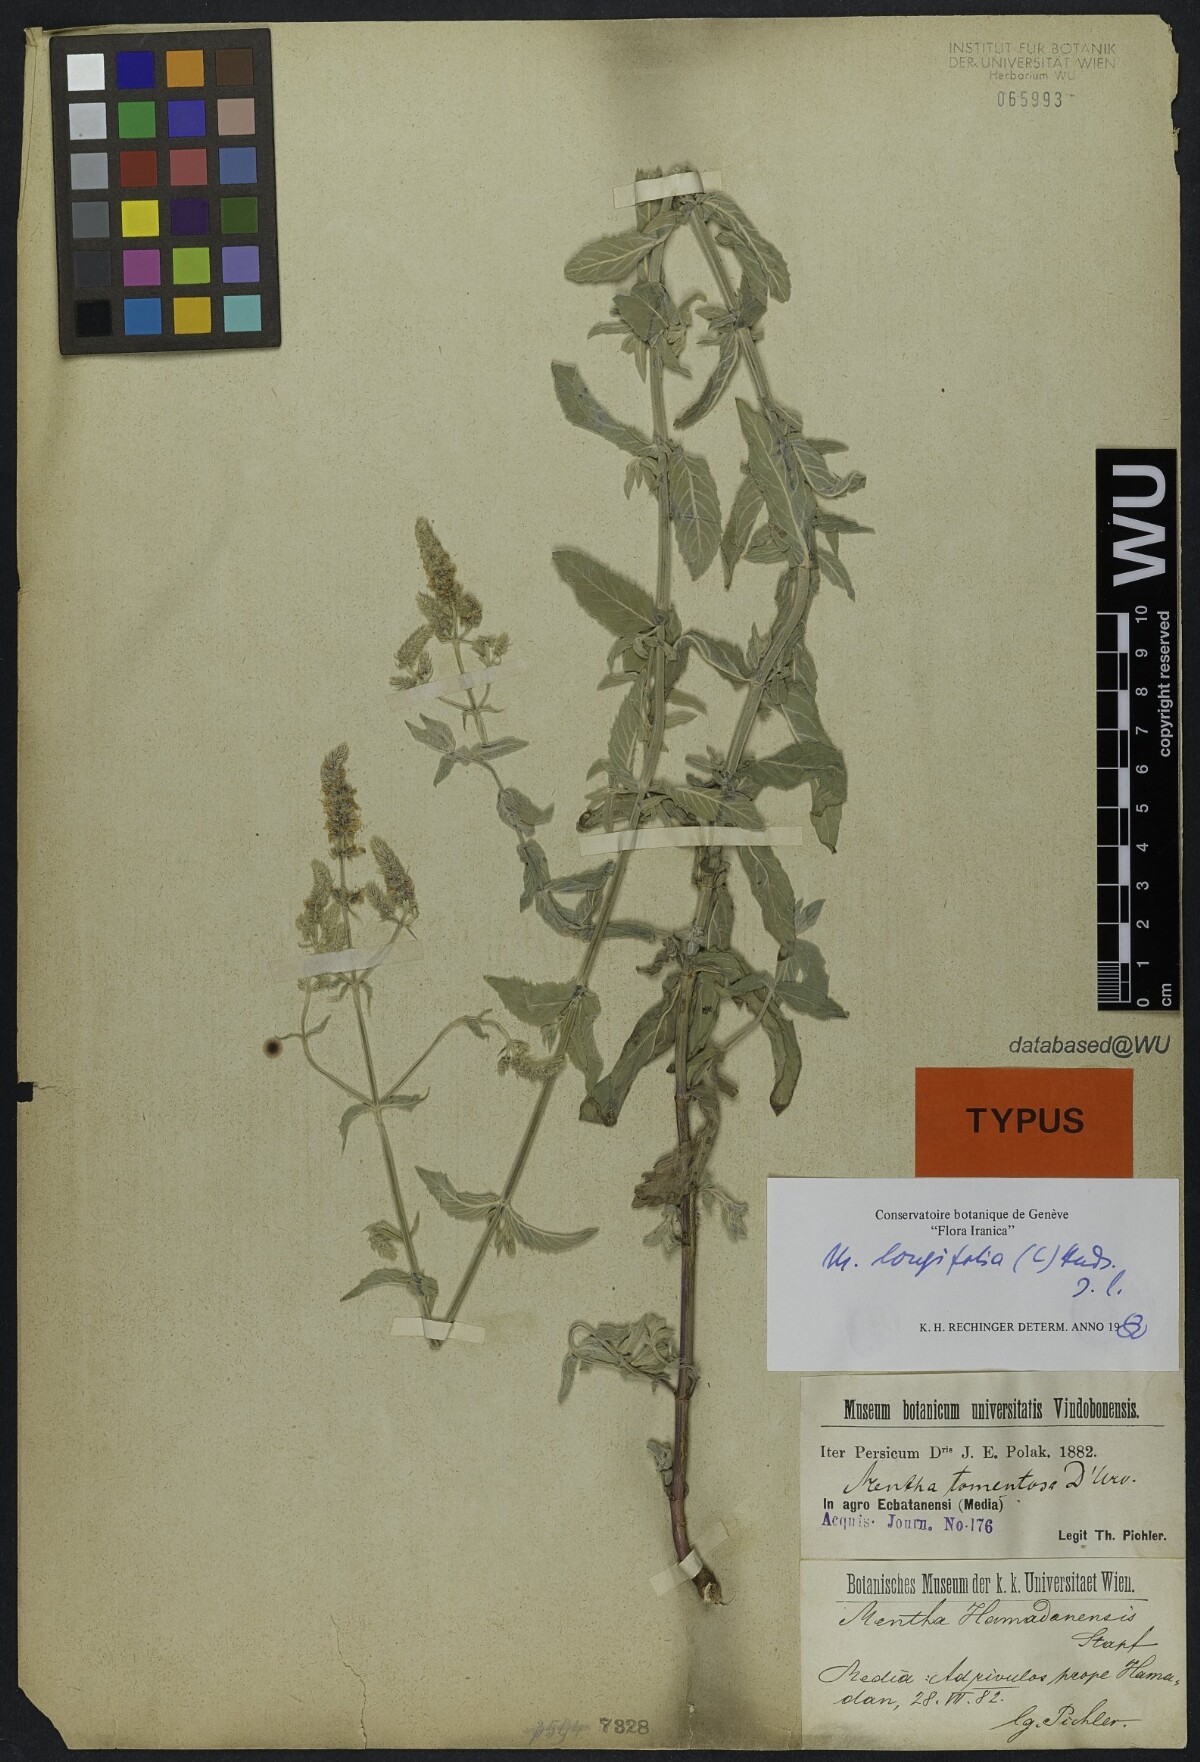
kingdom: Plantae
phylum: Tracheophyta
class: Magnoliopsida
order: Lamiales
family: Lamiaceae
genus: Mentha
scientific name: Mentha longifolia
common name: Horse mint
